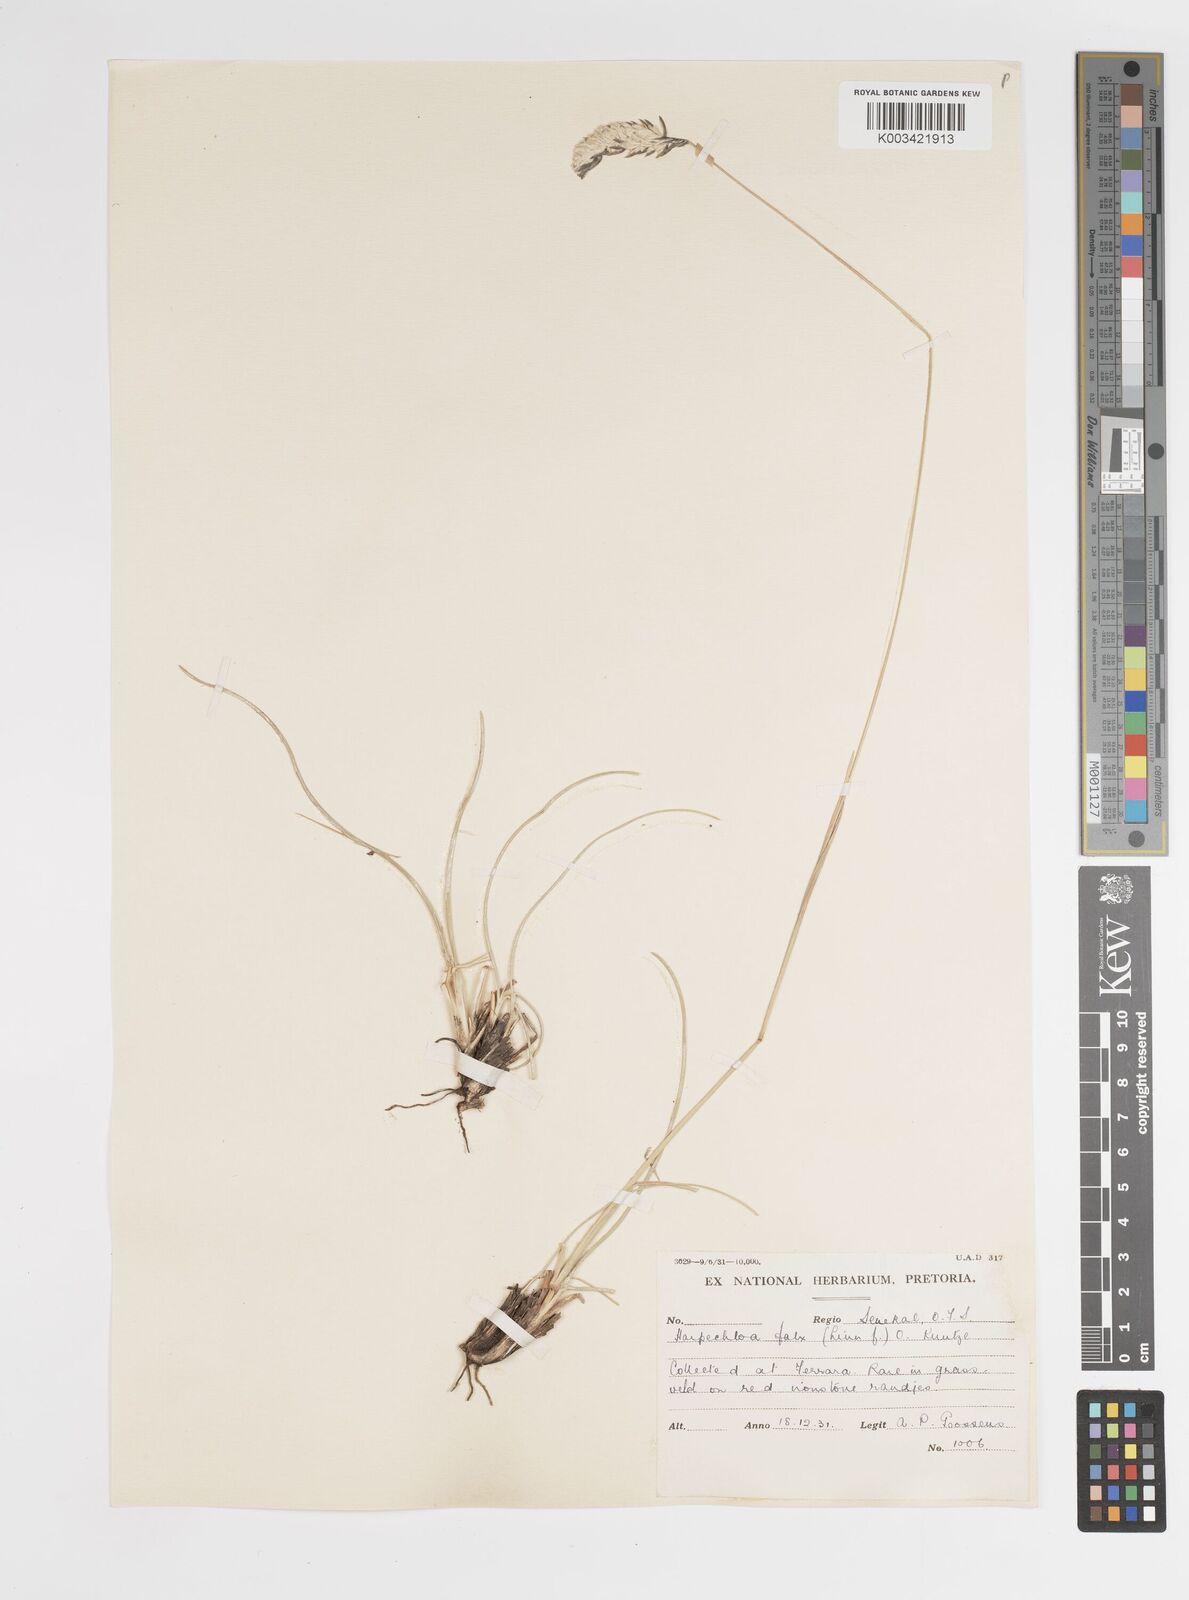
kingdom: Plantae
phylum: Tracheophyta
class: Liliopsida
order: Poales
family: Poaceae
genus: Harpochloa
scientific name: Harpochloa falx
